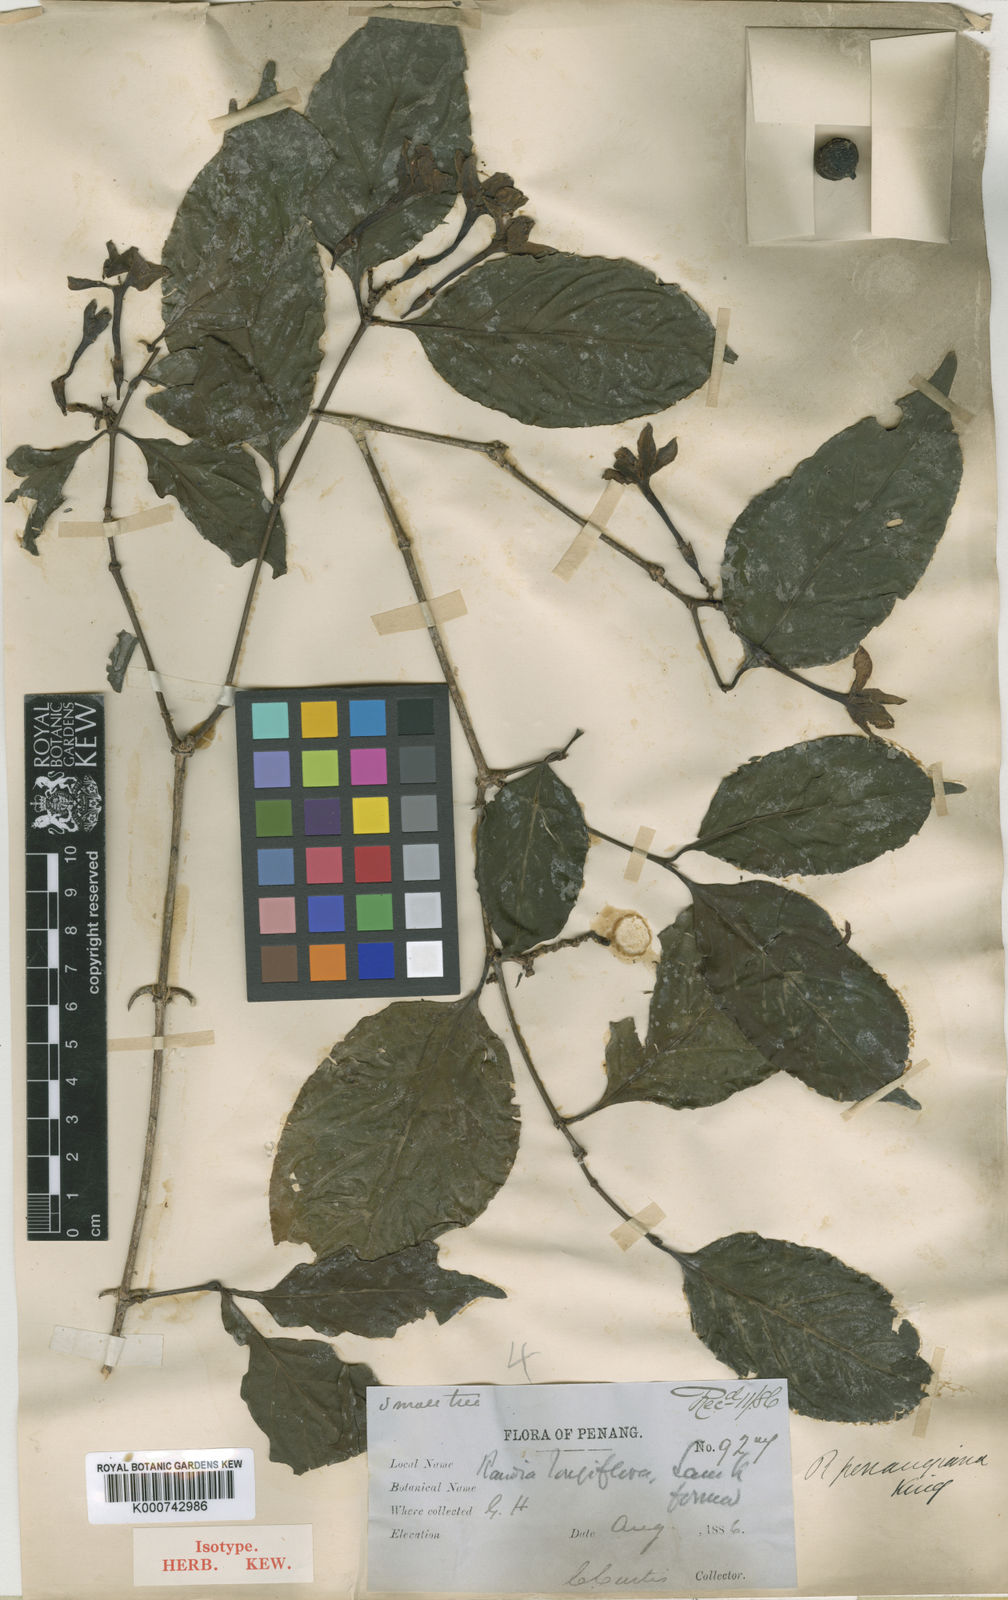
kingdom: Plantae
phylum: Tracheophyta
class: Magnoliopsida
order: Gentianales
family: Rubiaceae
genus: Oxyceros
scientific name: Oxyceros penangianus
